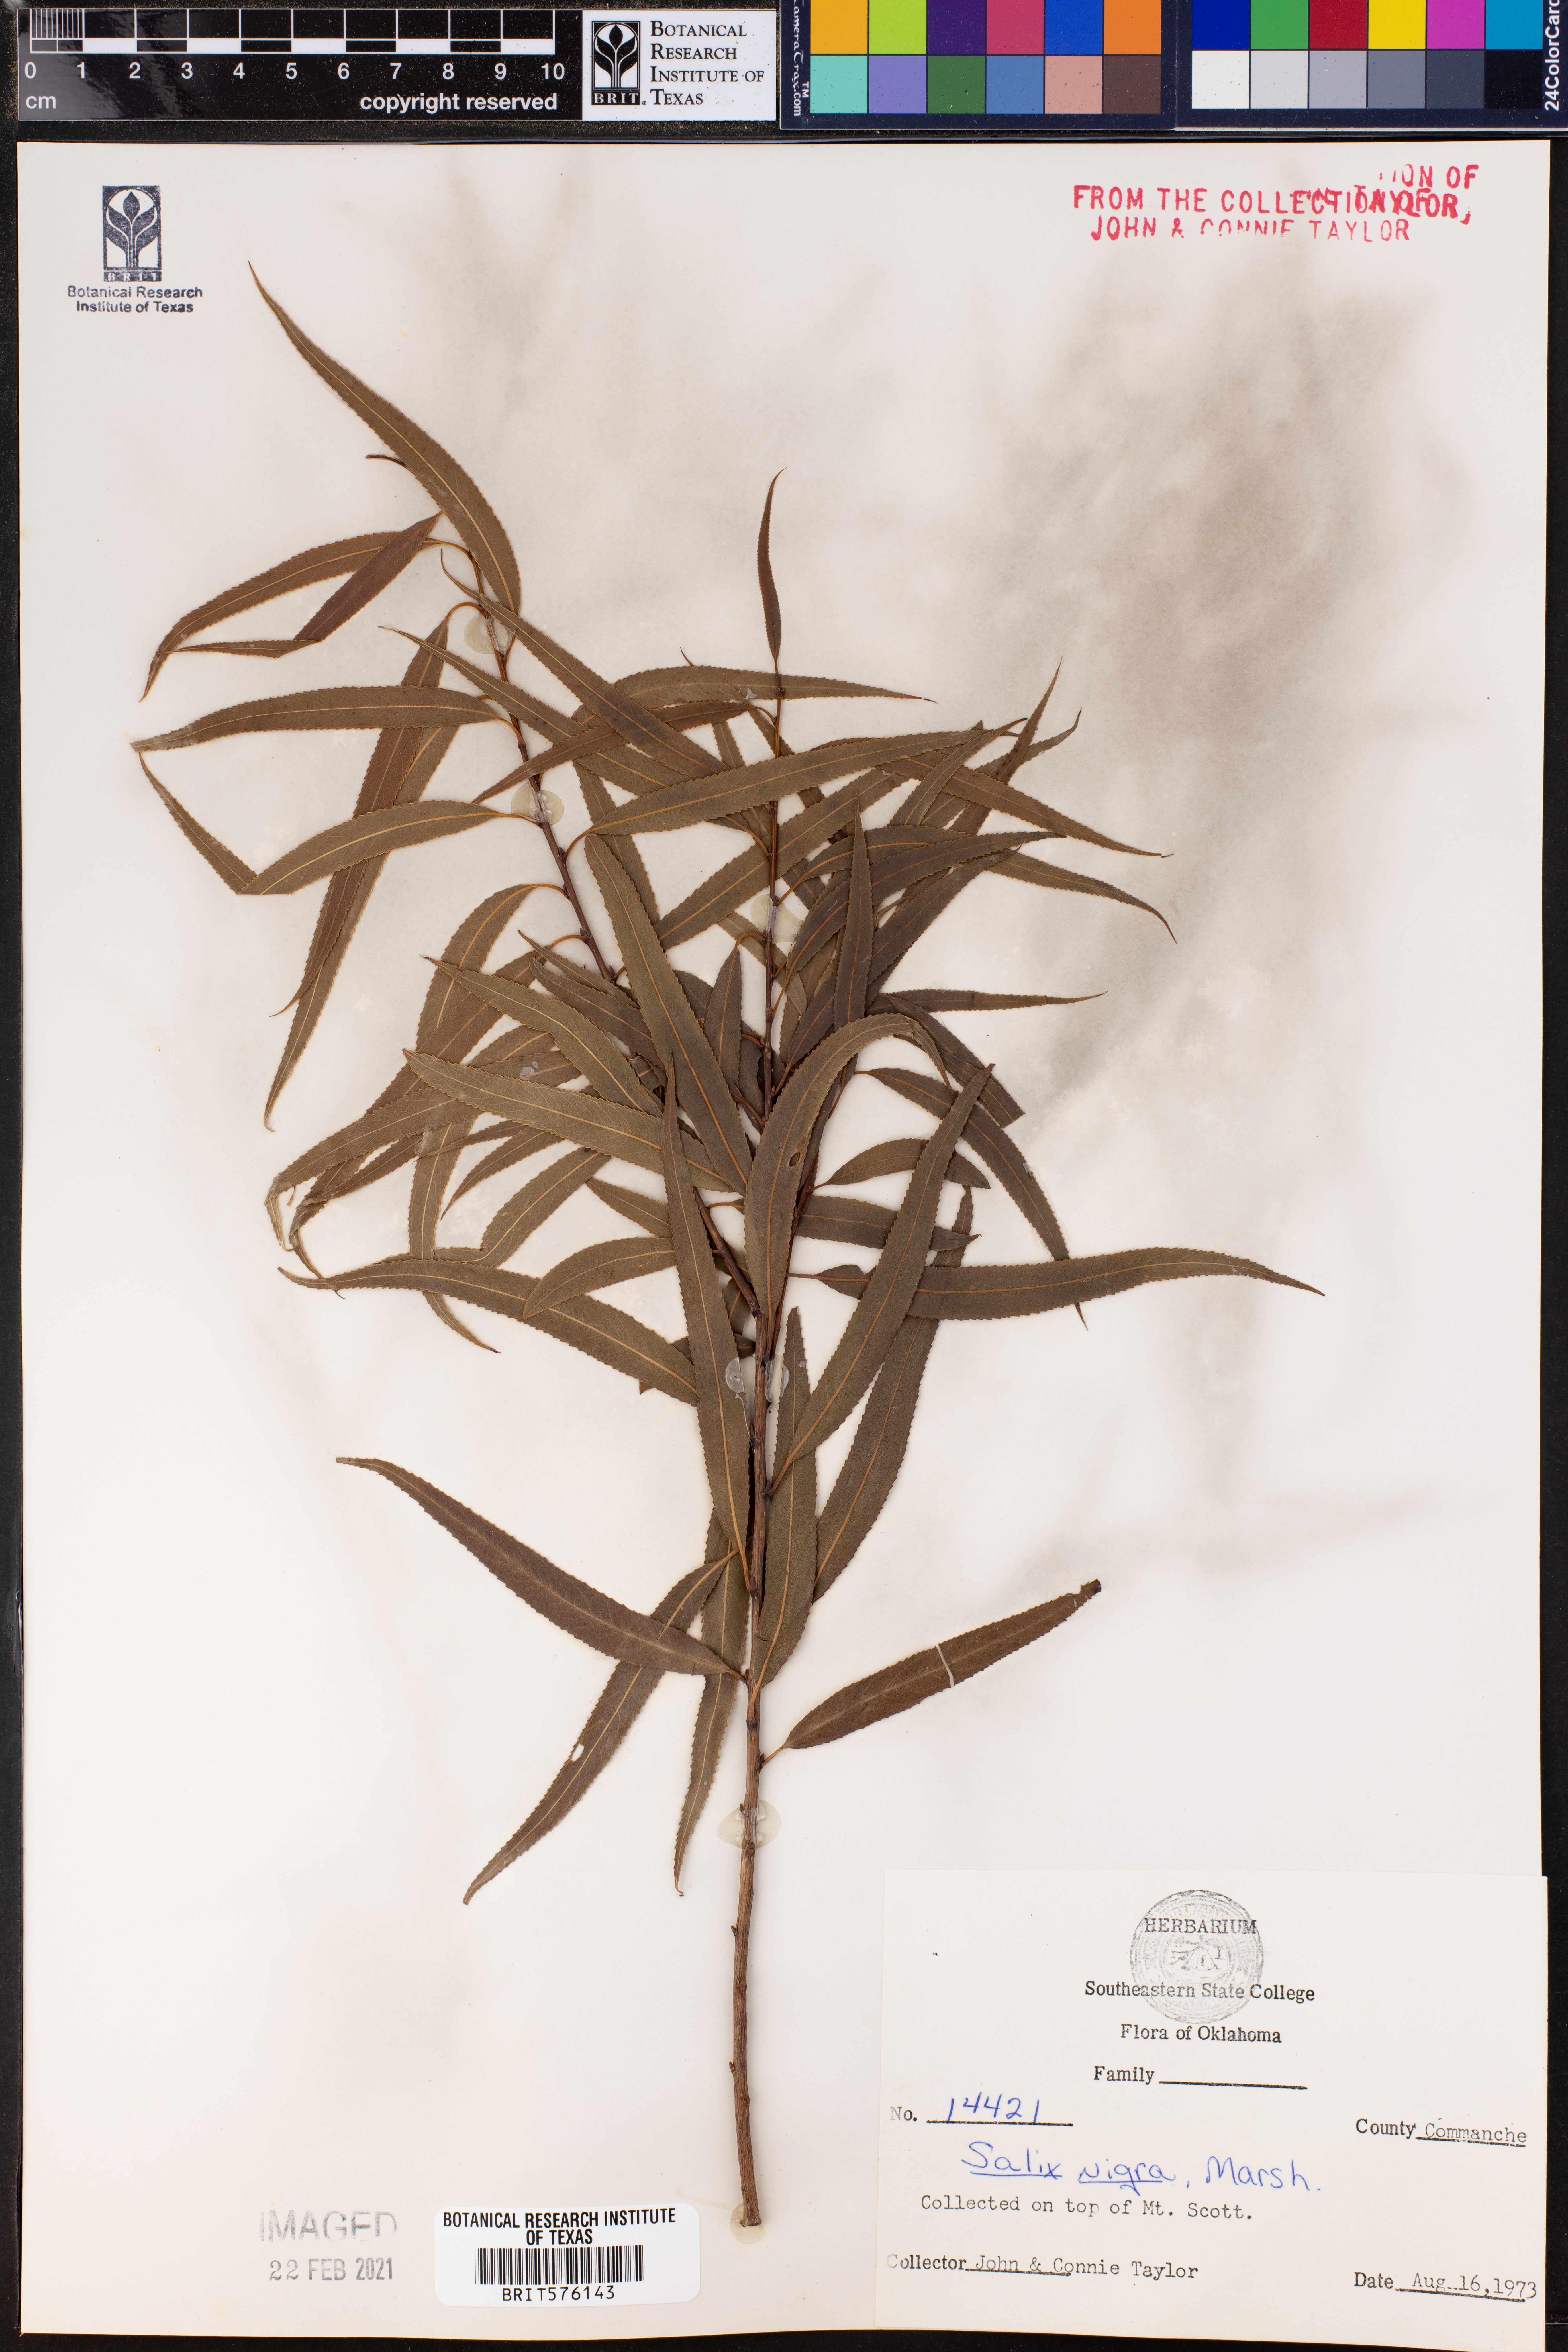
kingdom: Plantae
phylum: Tracheophyta
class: Magnoliopsida
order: Malpighiales
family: Salicaceae
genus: Salix
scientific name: Salix nigra
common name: Black willow
